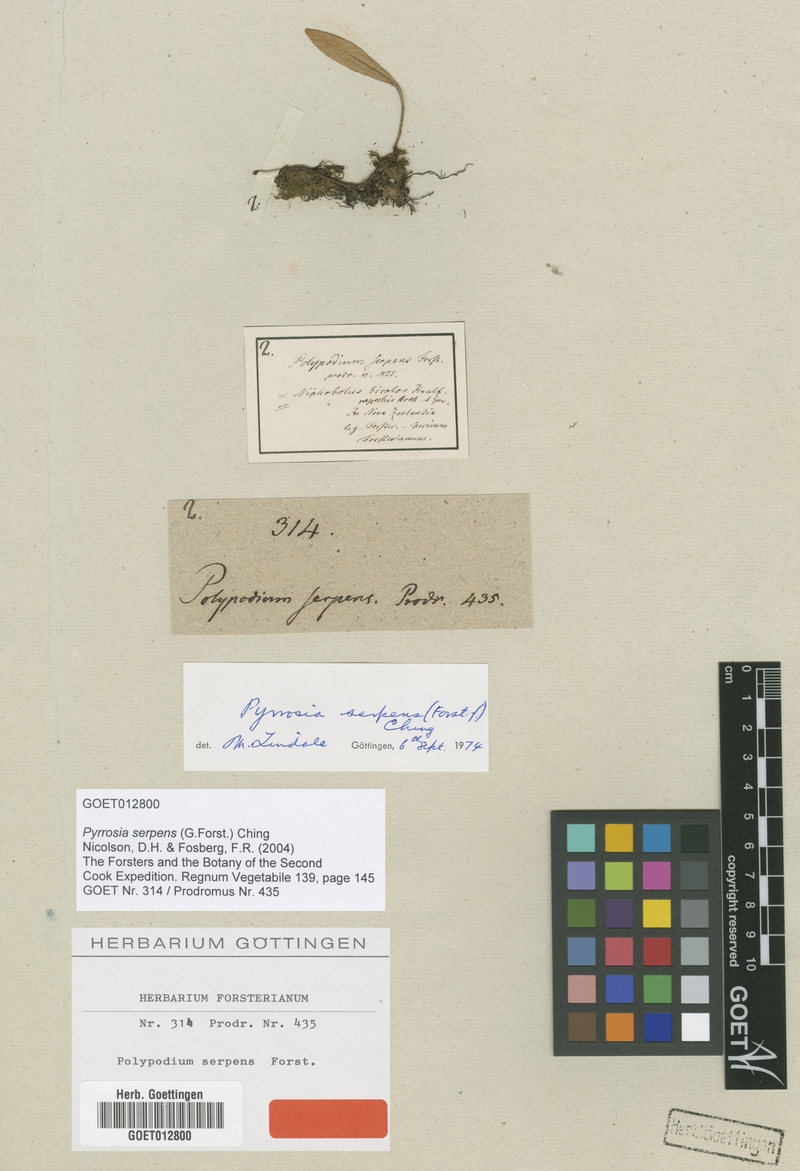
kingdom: Plantae
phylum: Tracheophyta
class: Polypodiopsida
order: Polypodiales
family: Polypodiaceae
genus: Pyrrosia
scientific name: Pyrrosia serpens
